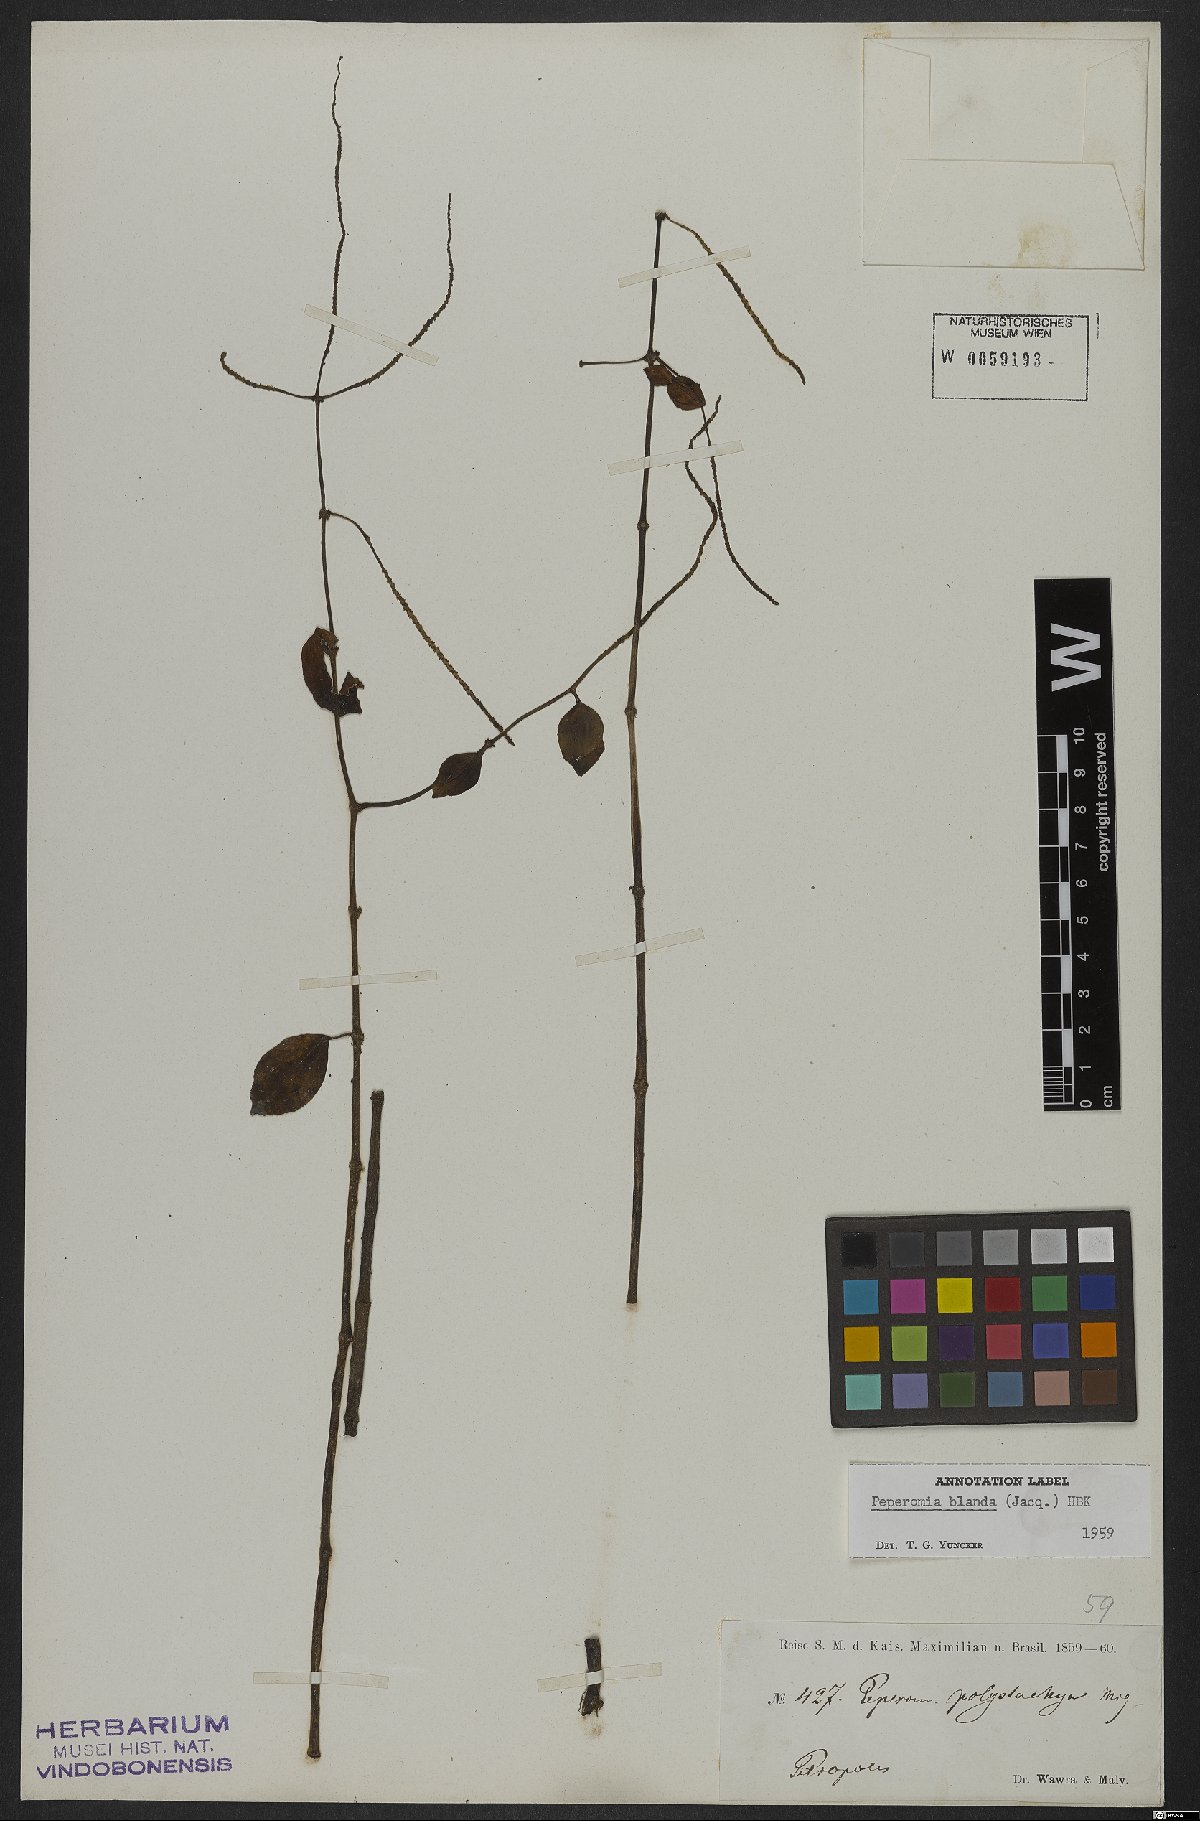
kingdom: Plantae
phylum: Tracheophyta
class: Magnoliopsida
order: Piperales
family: Piperaceae
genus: Peperomia
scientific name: Peperomia blanda
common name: Arid-land peperomia
